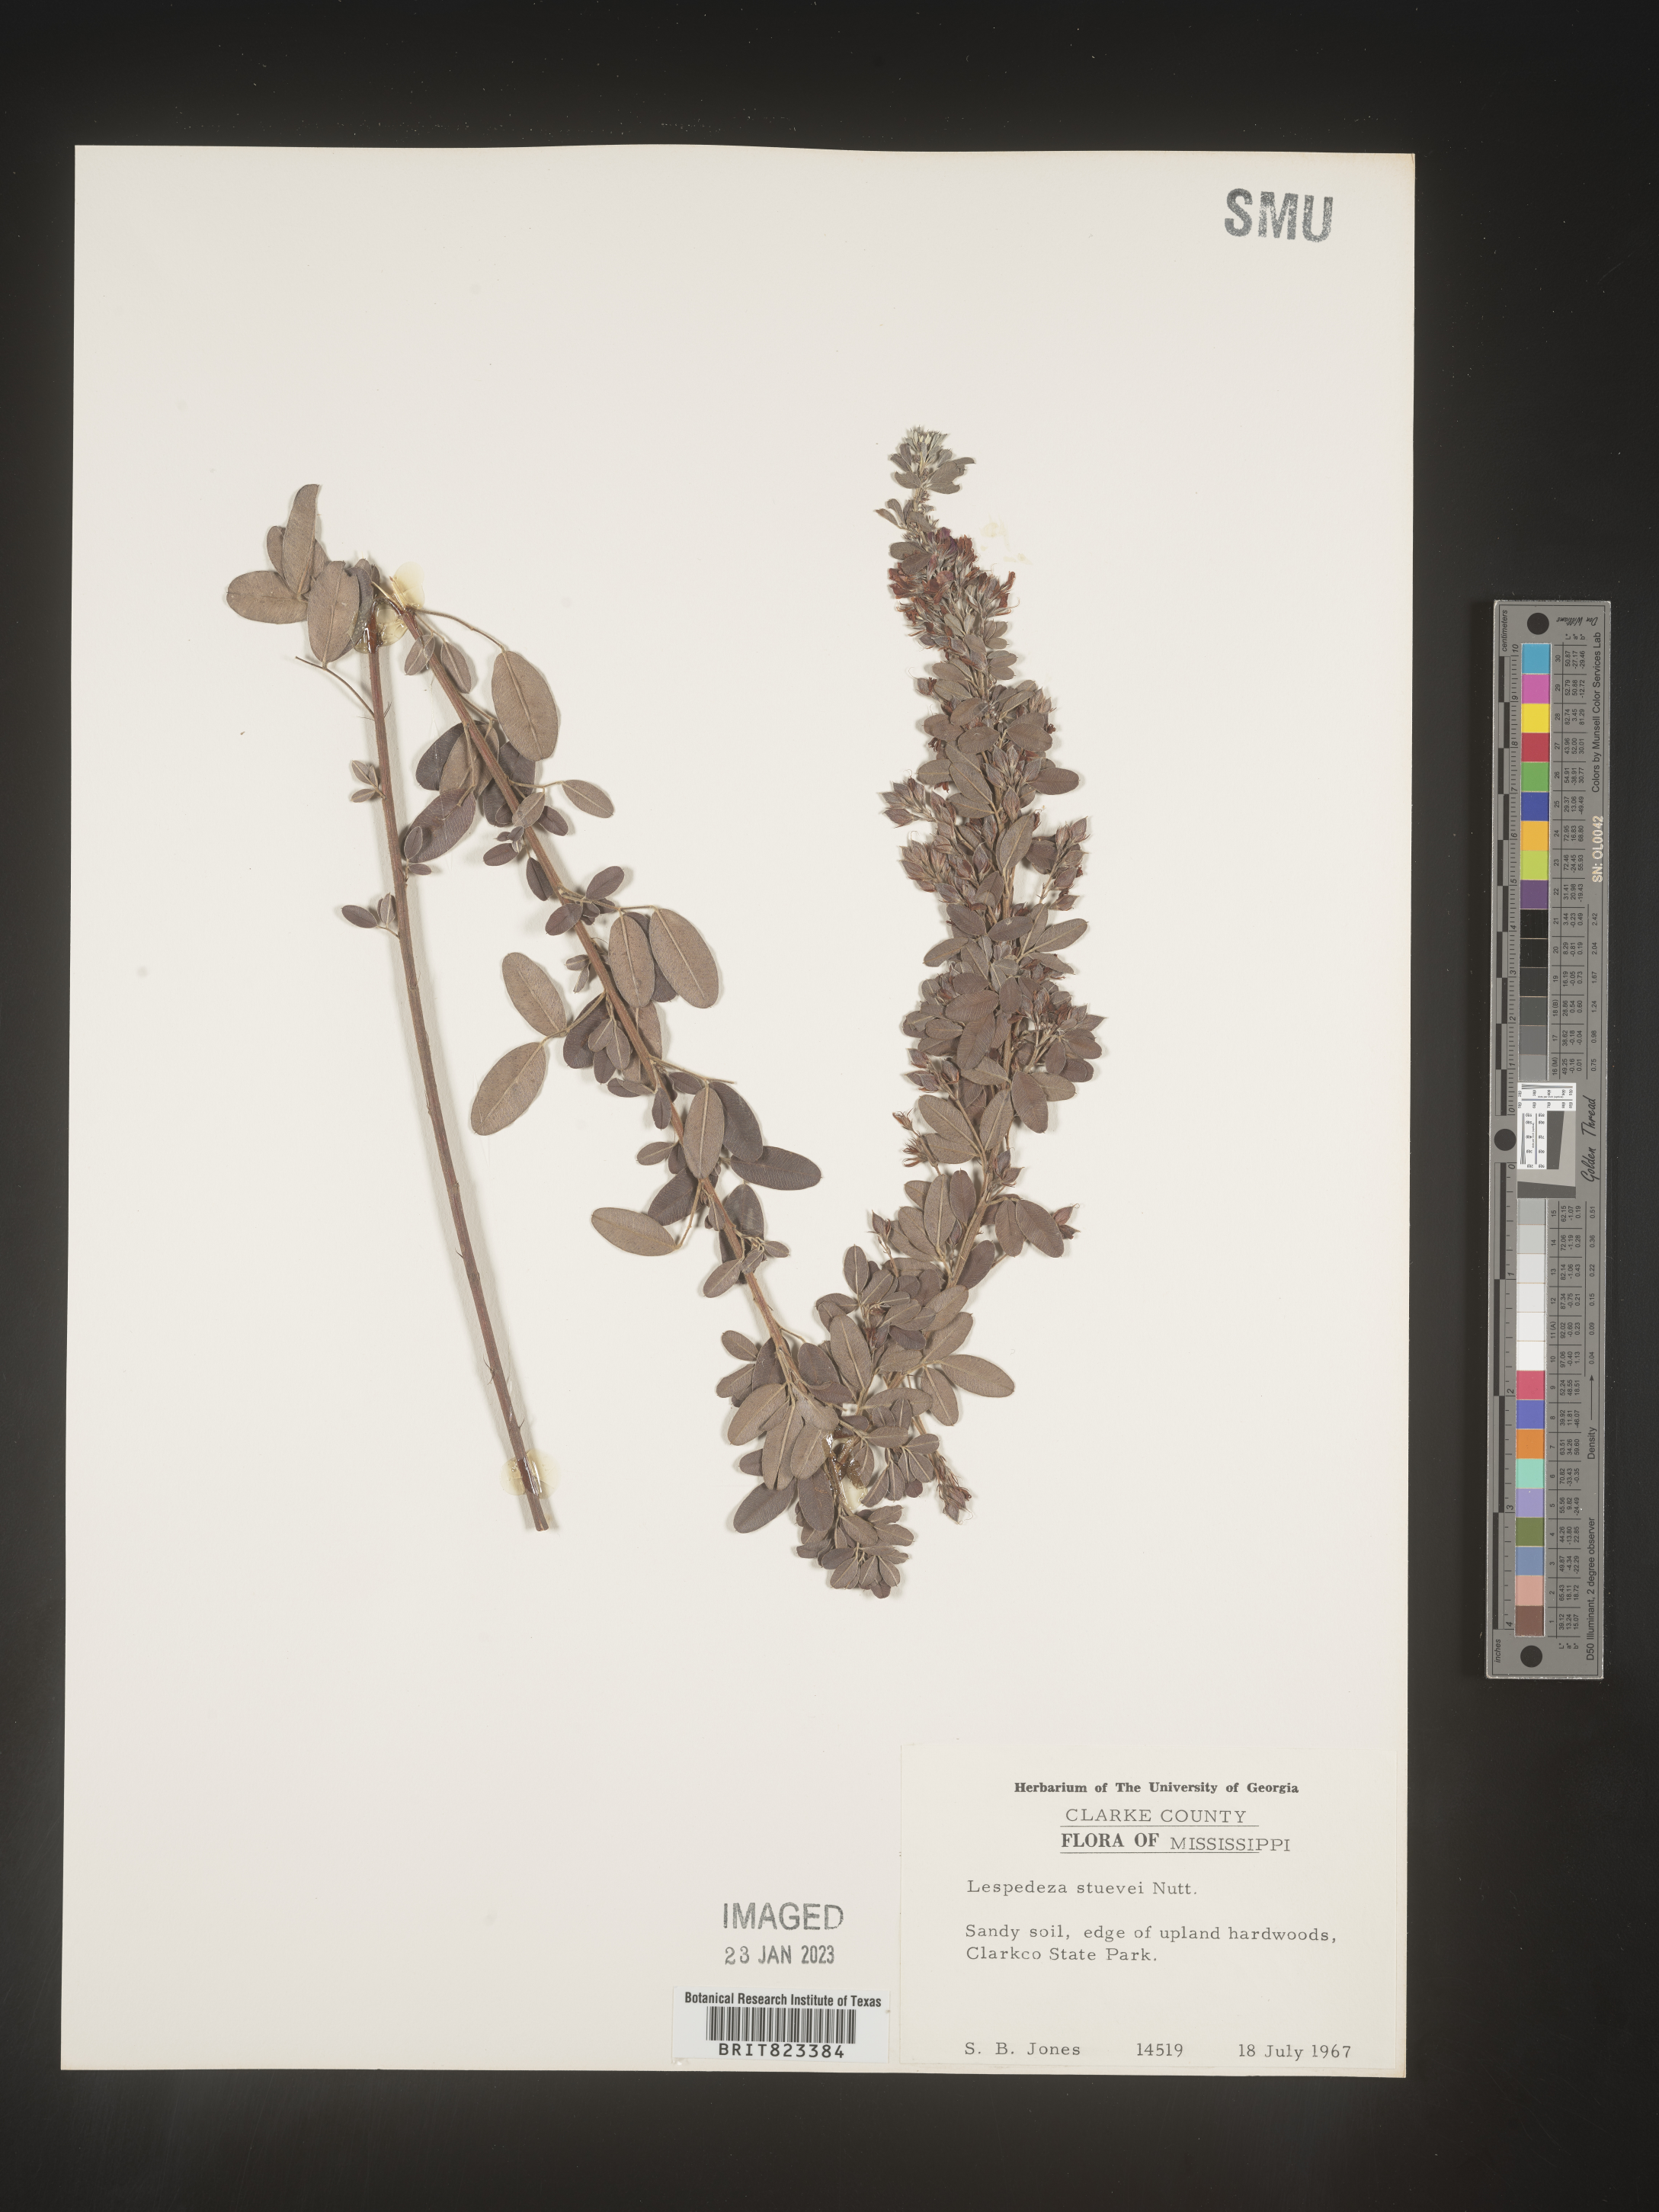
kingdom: Plantae
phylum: Tracheophyta
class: Magnoliopsida
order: Fabales
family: Fabaceae
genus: Lespedeza
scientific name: Lespedeza stuevei
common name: Tall bush-clover
